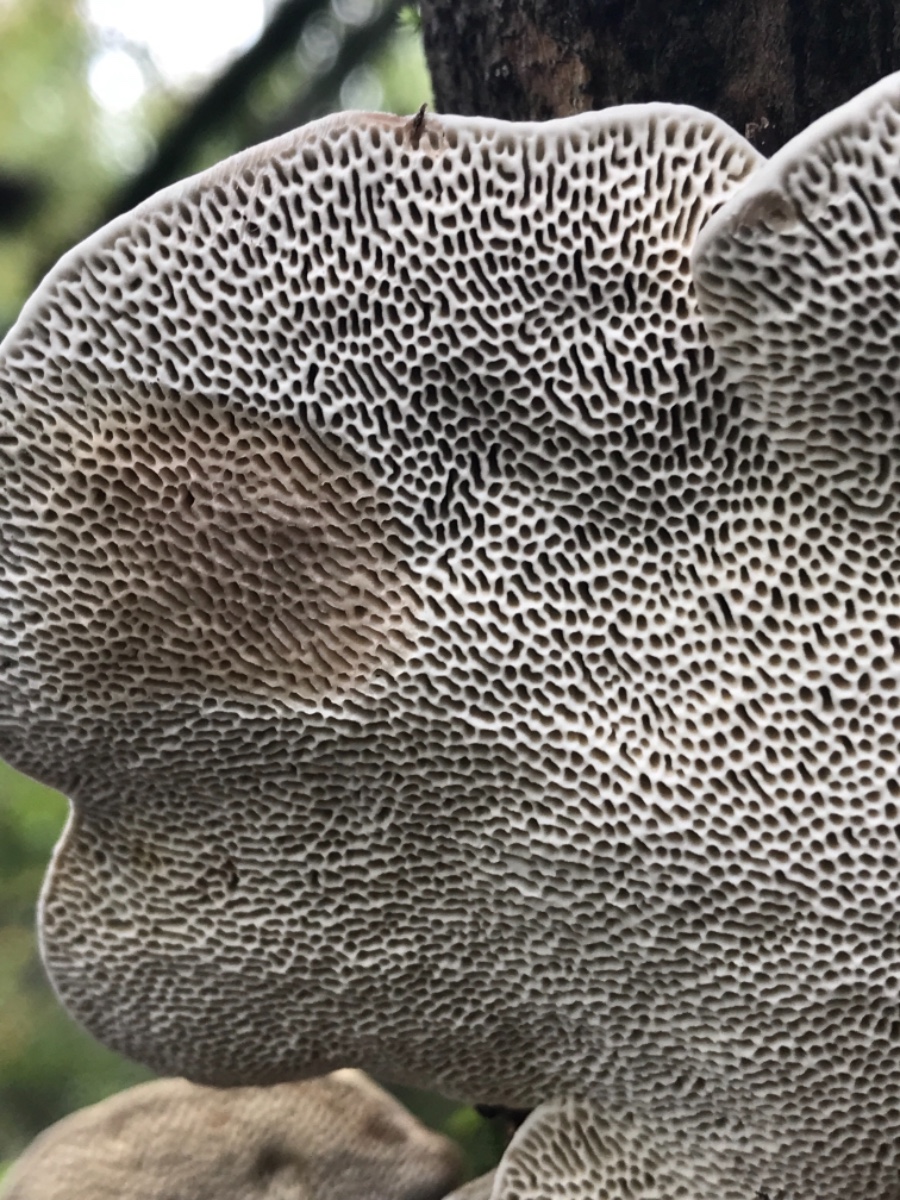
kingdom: Fungi
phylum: Basidiomycota
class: Agaricomycetes
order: Polyporales
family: Polyporaceae
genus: Daedaleopsis
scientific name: Daedaleopsis confragosa
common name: rødmende læderporesvamp
